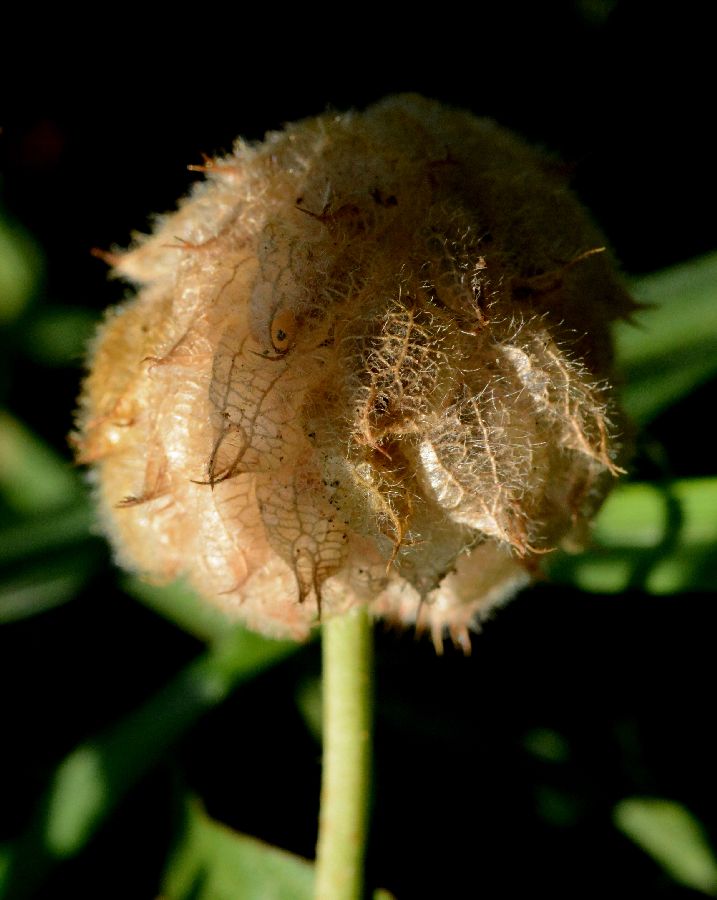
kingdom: Plantae
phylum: Tracheophyta
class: Magnoliopsida
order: Fabales
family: Fabaceae
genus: Trifolium
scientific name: Trifolium fragiferum
